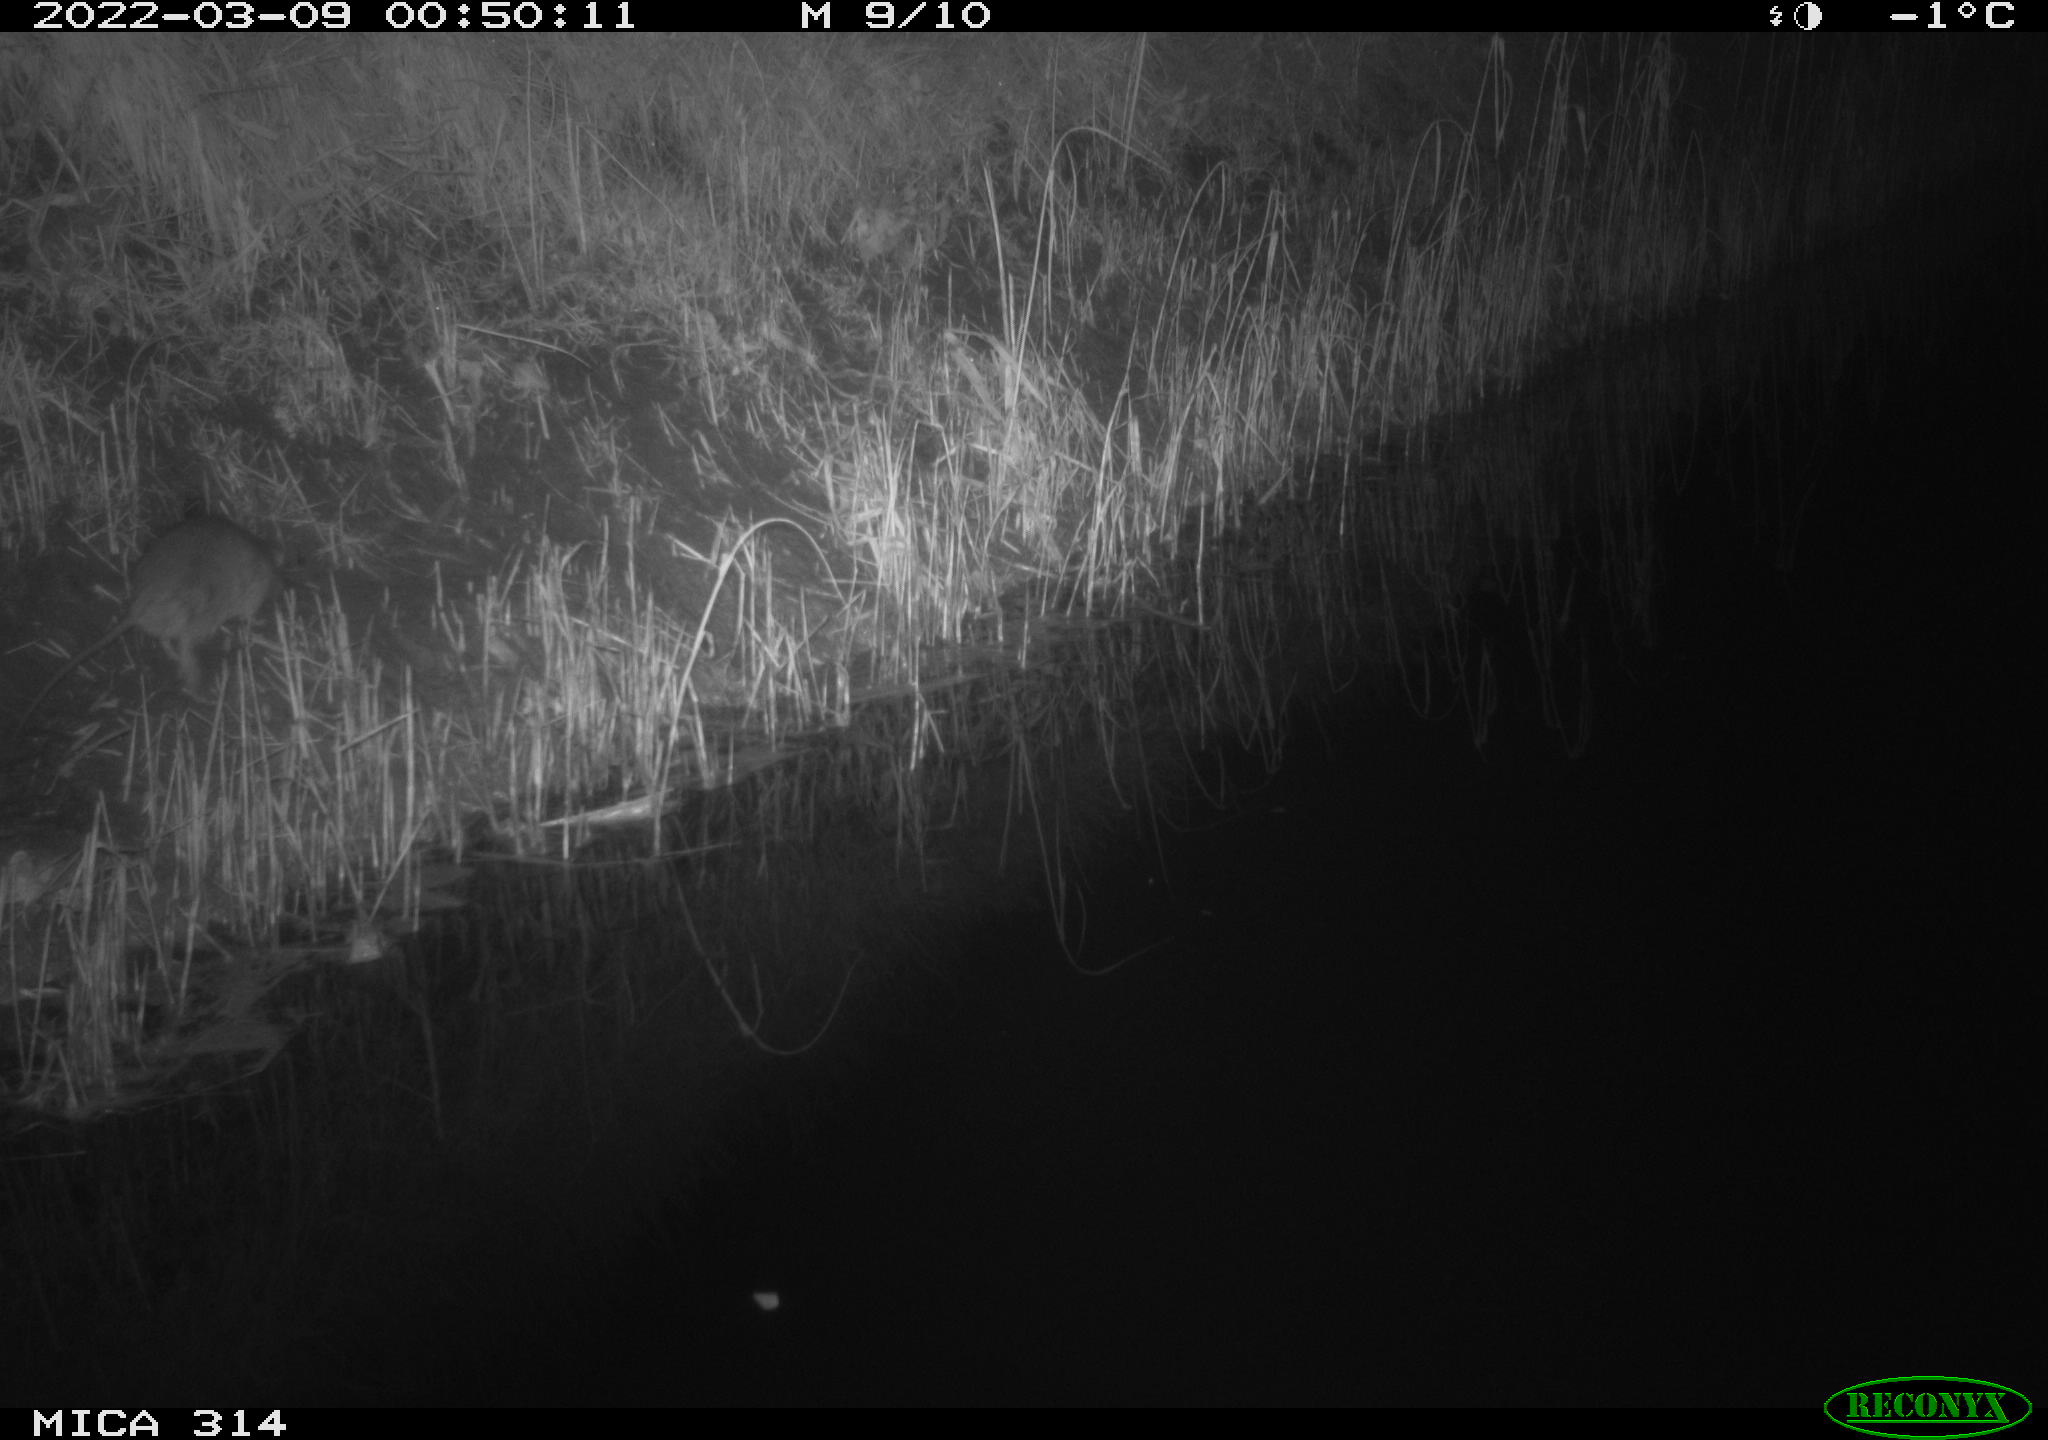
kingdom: Animalia
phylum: Chordata
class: Mammalia
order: Rodentia
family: Muridae
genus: Rattus
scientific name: Rattus norvegicus
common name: Brown rat
